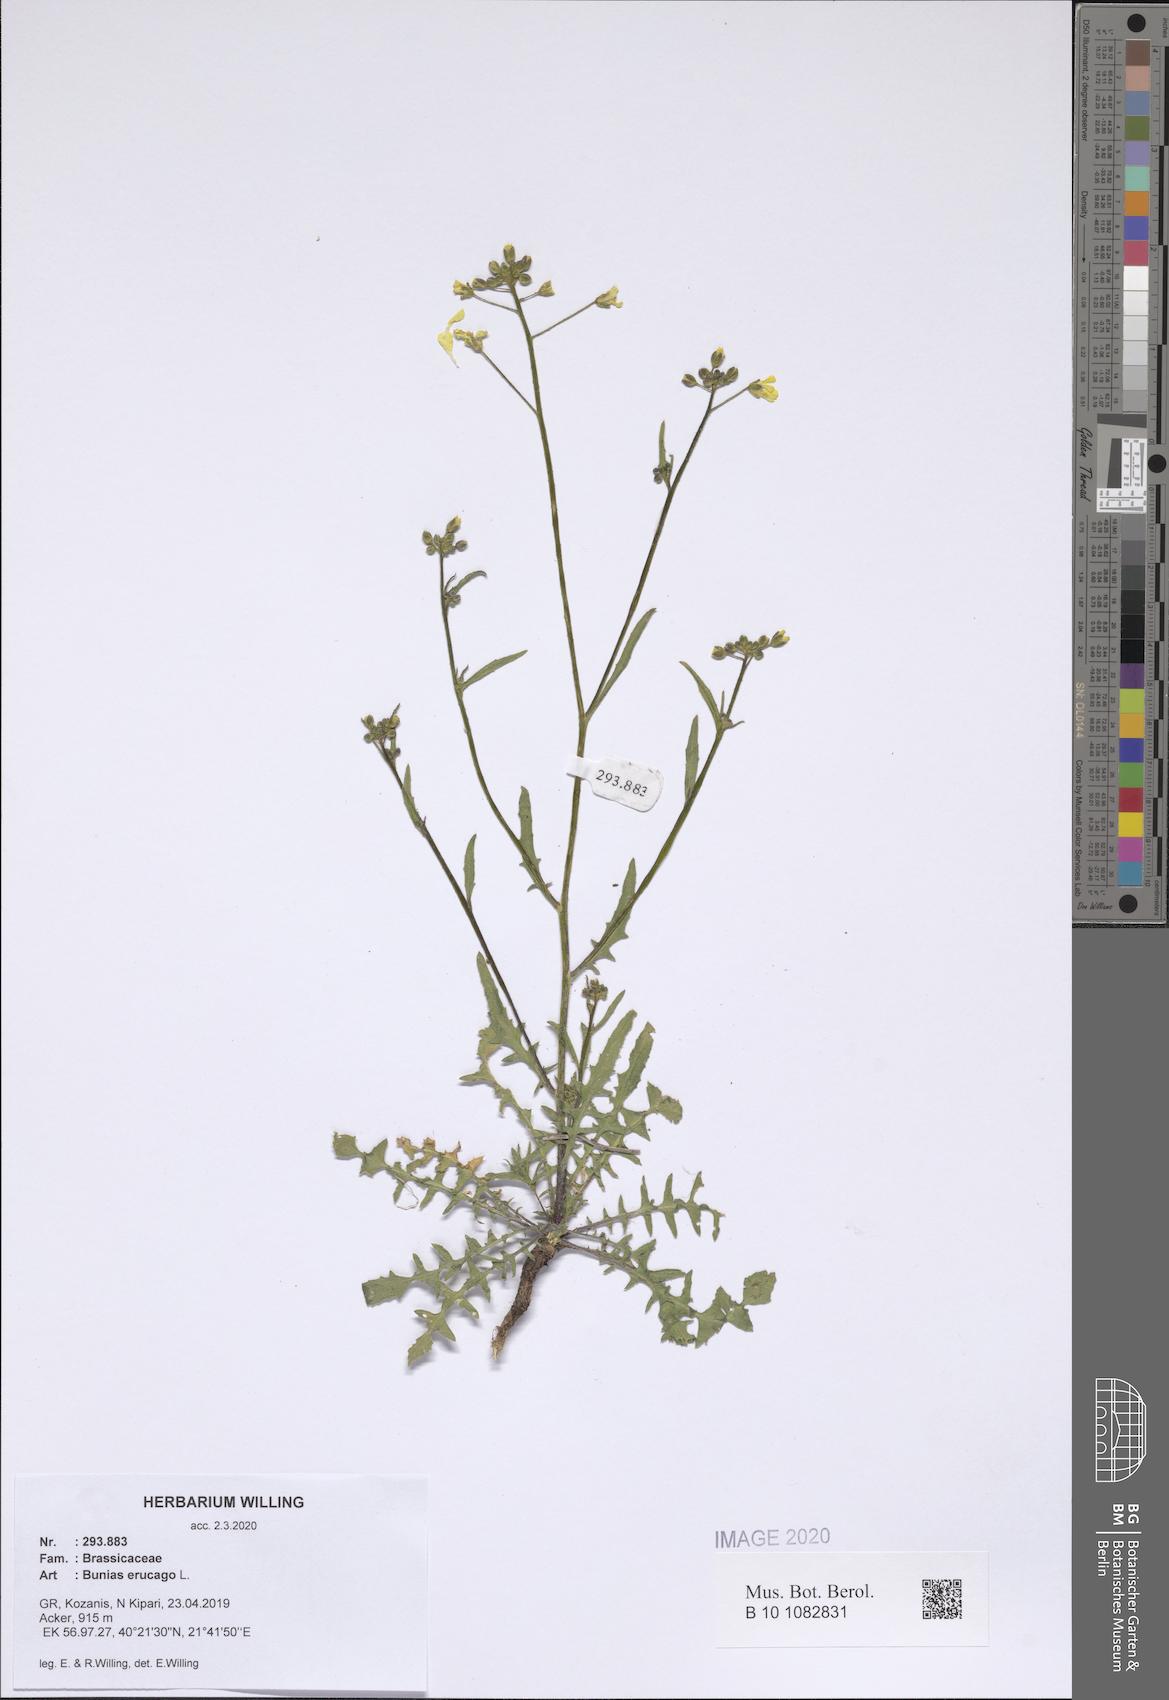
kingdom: Plantae
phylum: Tracheophyta
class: Magnoliopsida
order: Brassicales
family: Brassicaceae
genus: Bunias
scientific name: Bunias erucago
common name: Southern warty-cabbage
